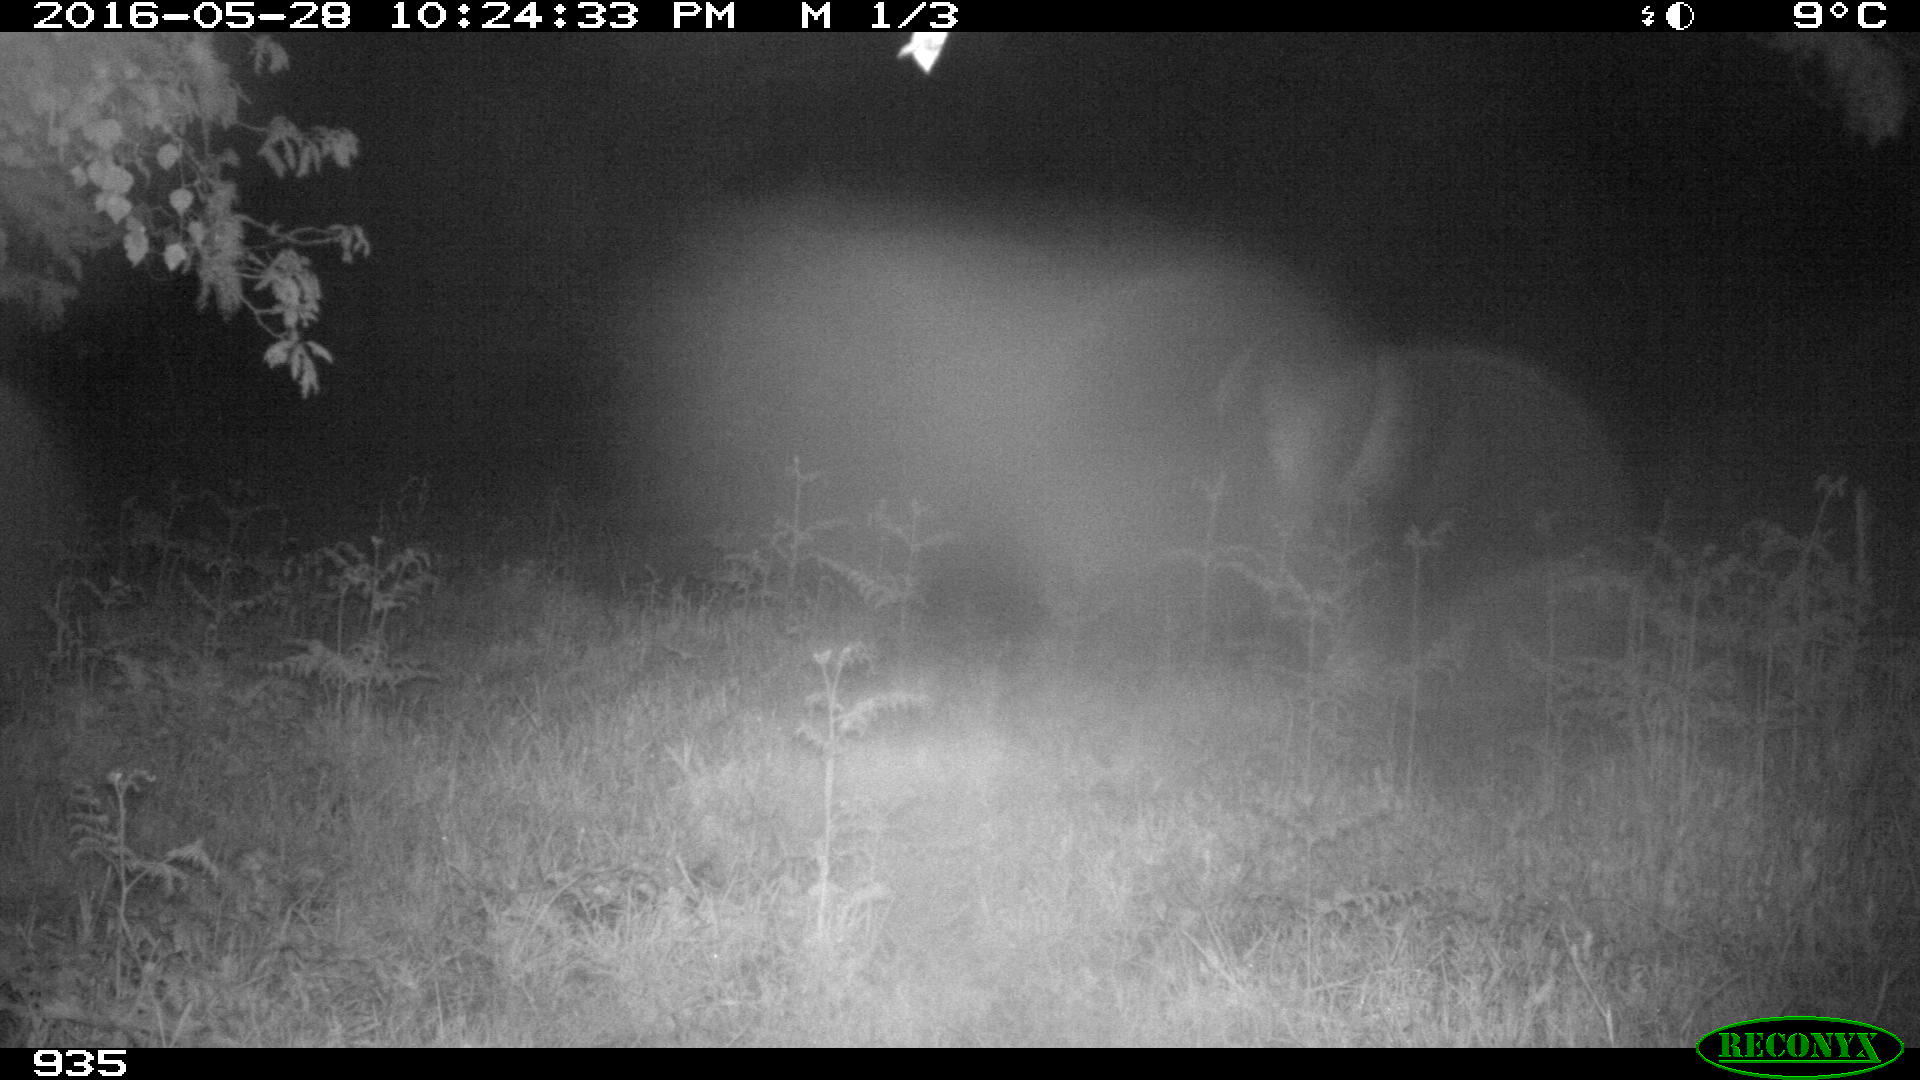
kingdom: Animalia
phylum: Chordata
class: Mammalia
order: Perissodactyla
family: Equidae
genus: Equus
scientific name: Equus caballus
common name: Horse
